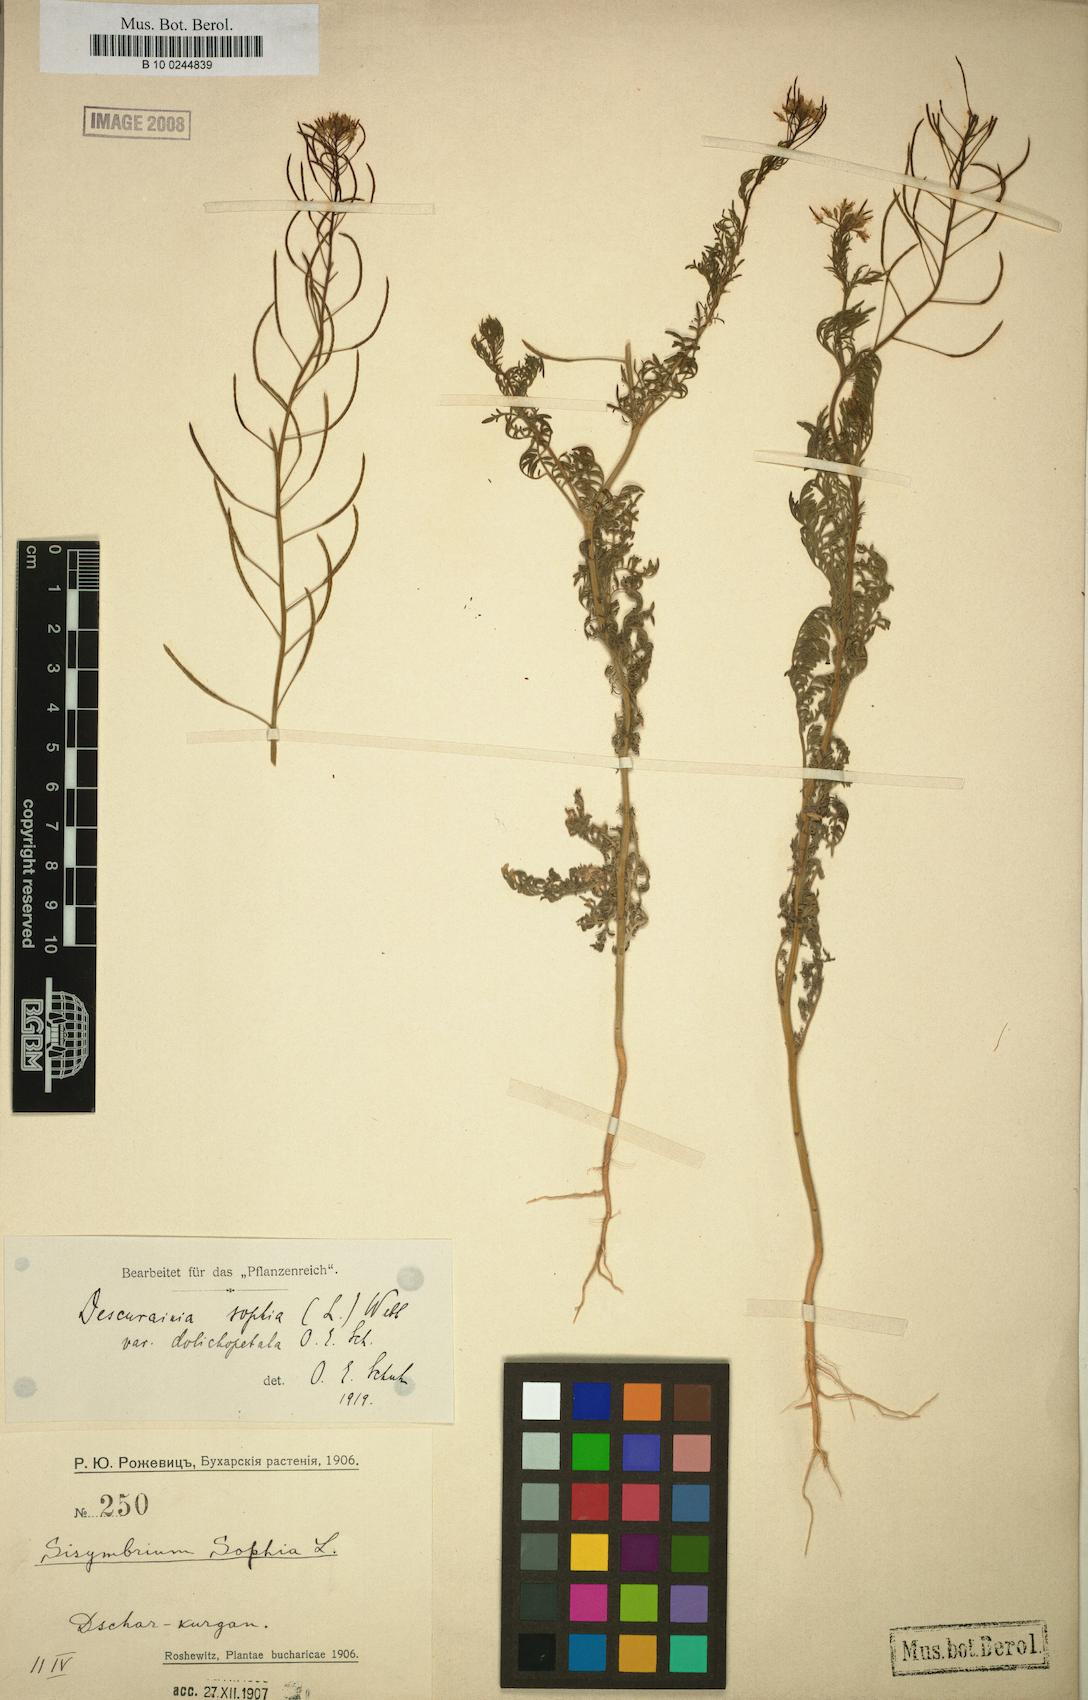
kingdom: Plantae
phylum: Tracheophyta
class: Magnoliopsida
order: Brassicales
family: Brassicaceae
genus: Descurainia
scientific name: Descurainia sophia
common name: Flixweed
